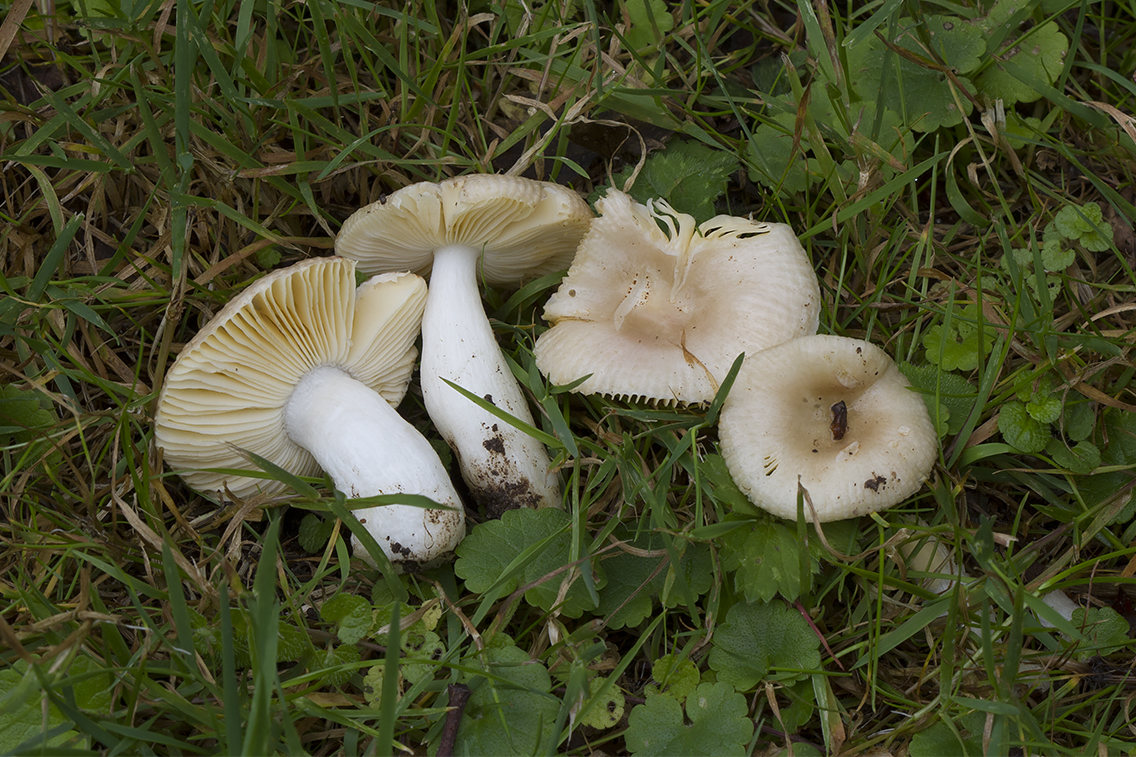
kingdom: Fungi
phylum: Basidiomycota
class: Agaricomycetes
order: Russulales
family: Russulaceae
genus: Russula
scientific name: Russula odorata
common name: duft-skørhat
